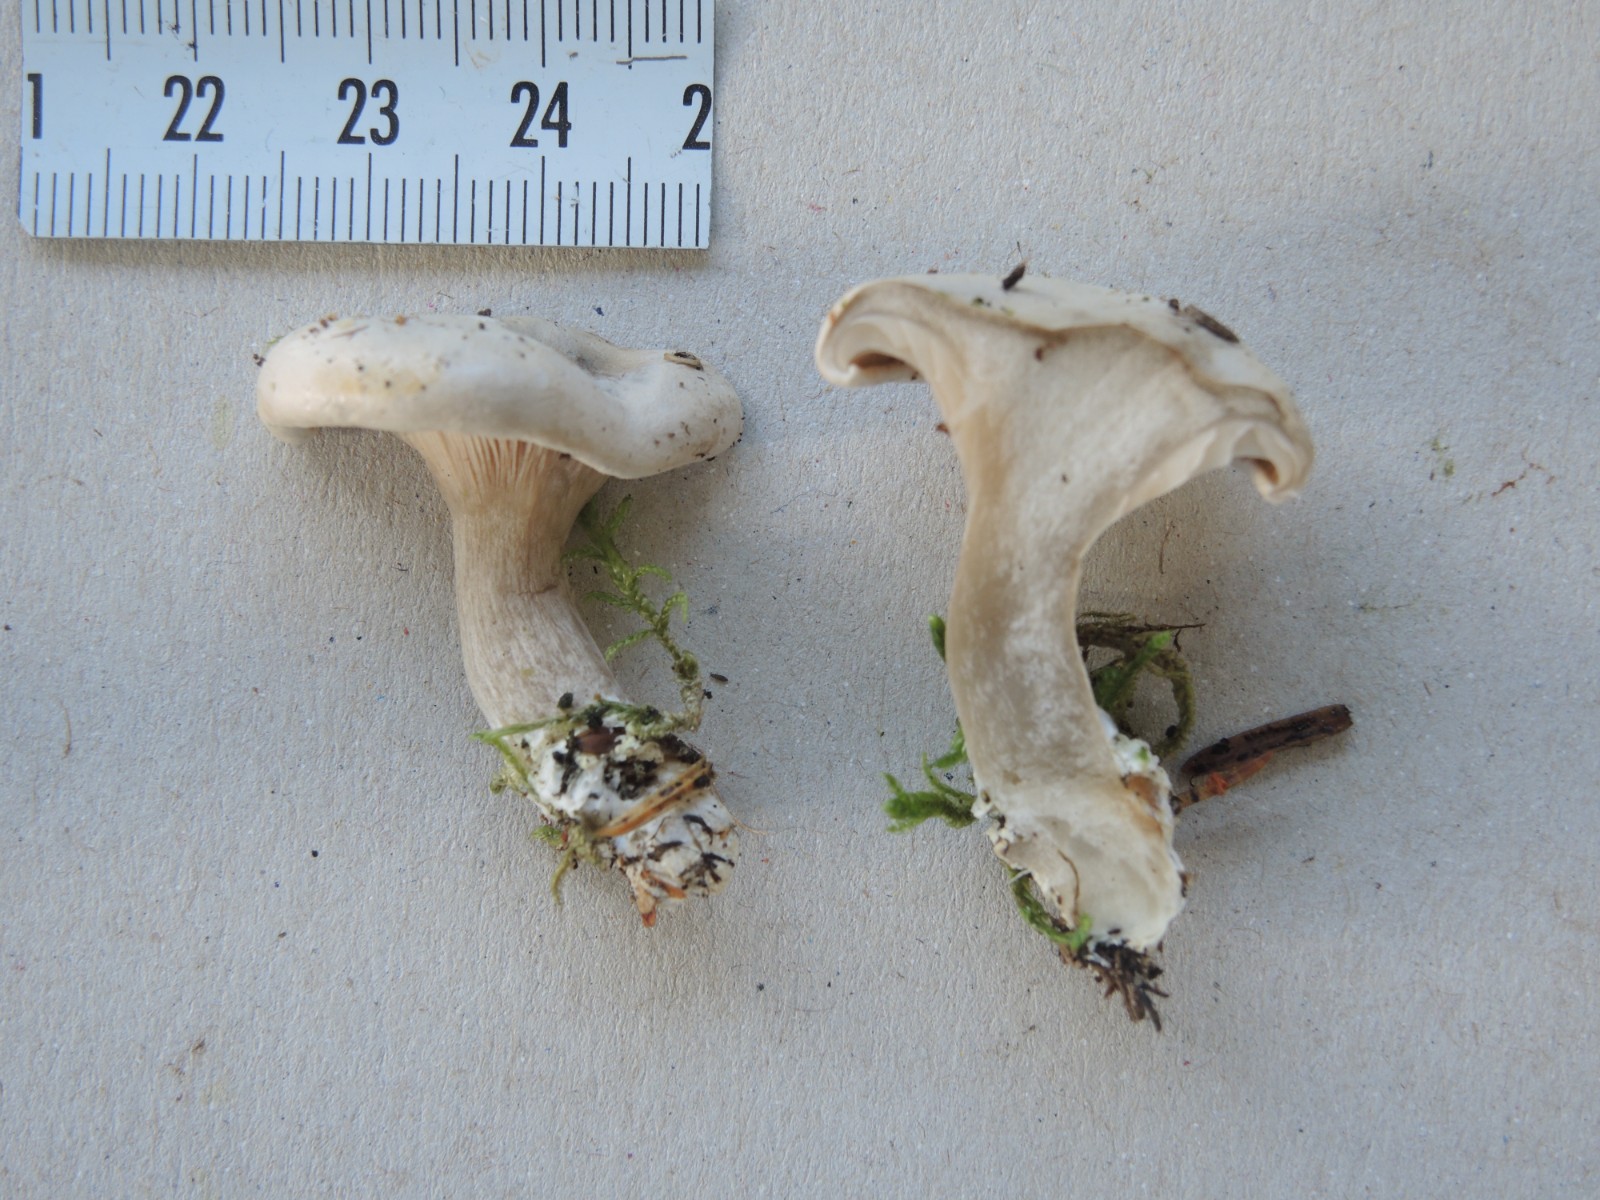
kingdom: Fungi
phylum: Basidiomycota
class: Agaricomycetes
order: Agaricales
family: Entolomataceae
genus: Clitopilus
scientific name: Clitopilus
